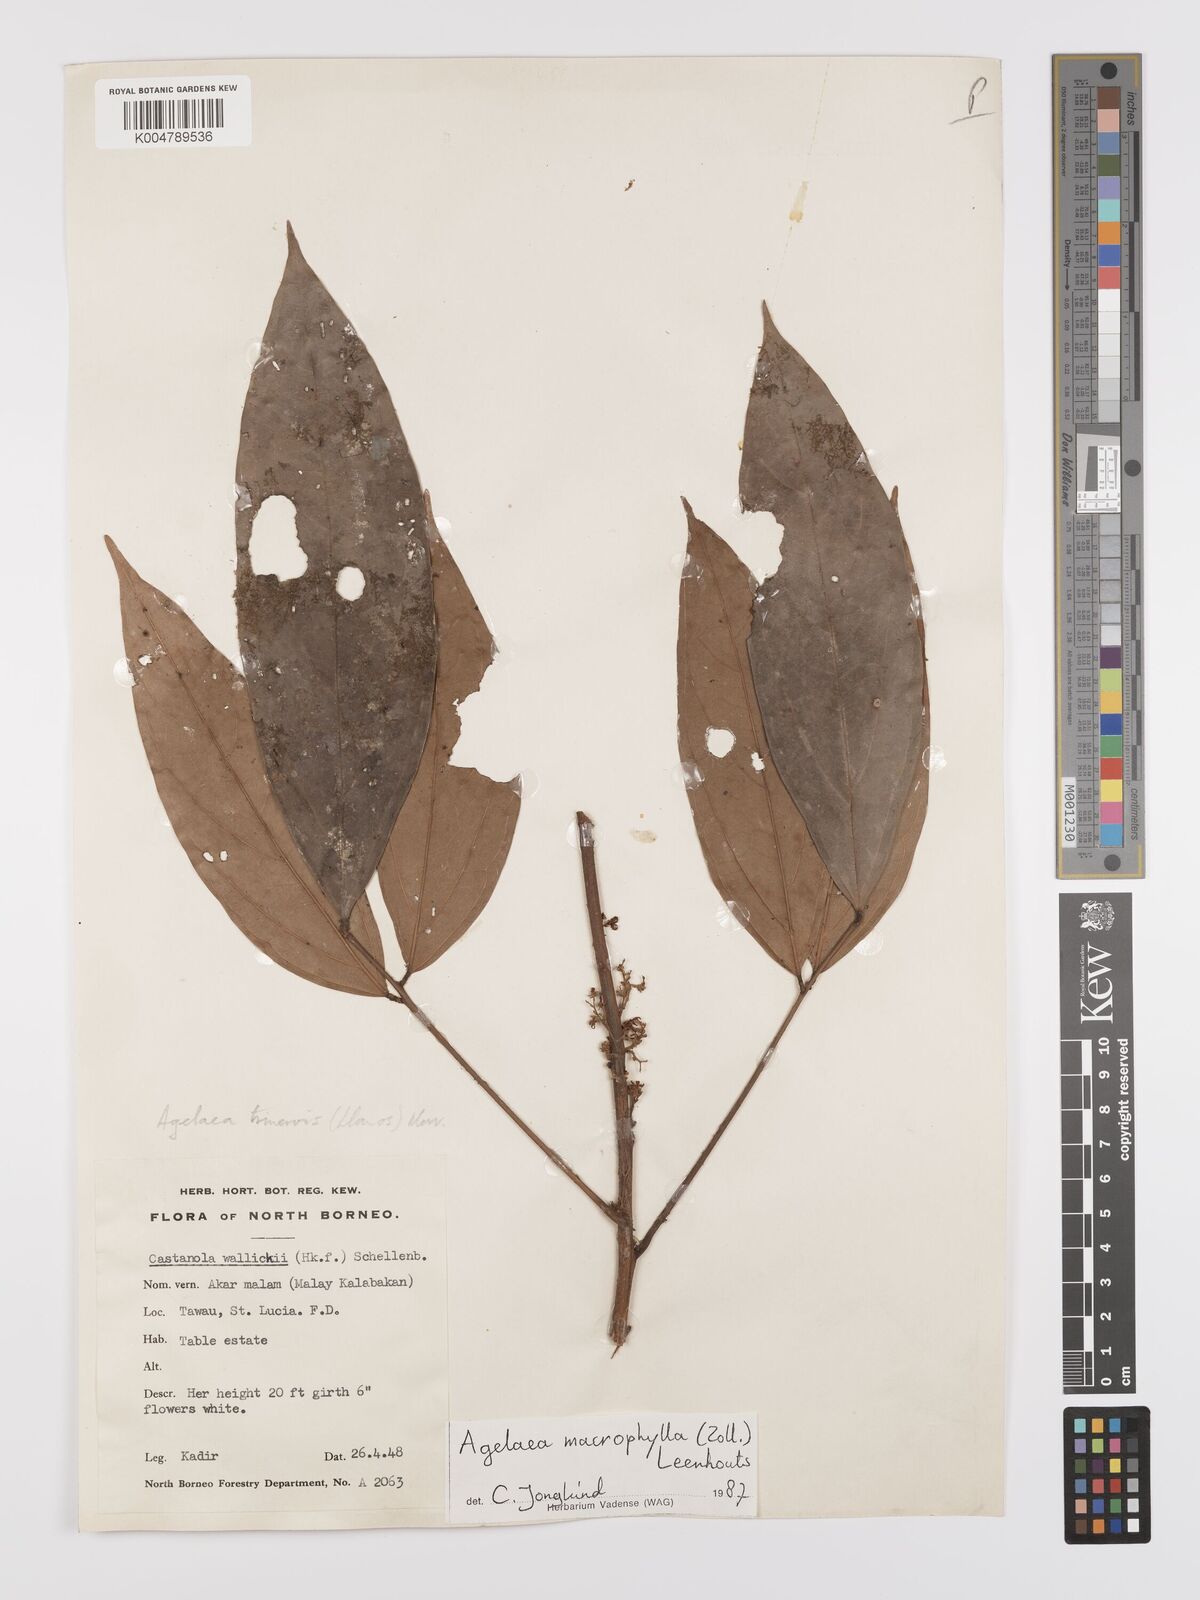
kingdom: Plantae
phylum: Tracheophyta
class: Magnoliopsida
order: Oxalidales
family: Connaraceae
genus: Agelaea
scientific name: Agelaea trinervis
